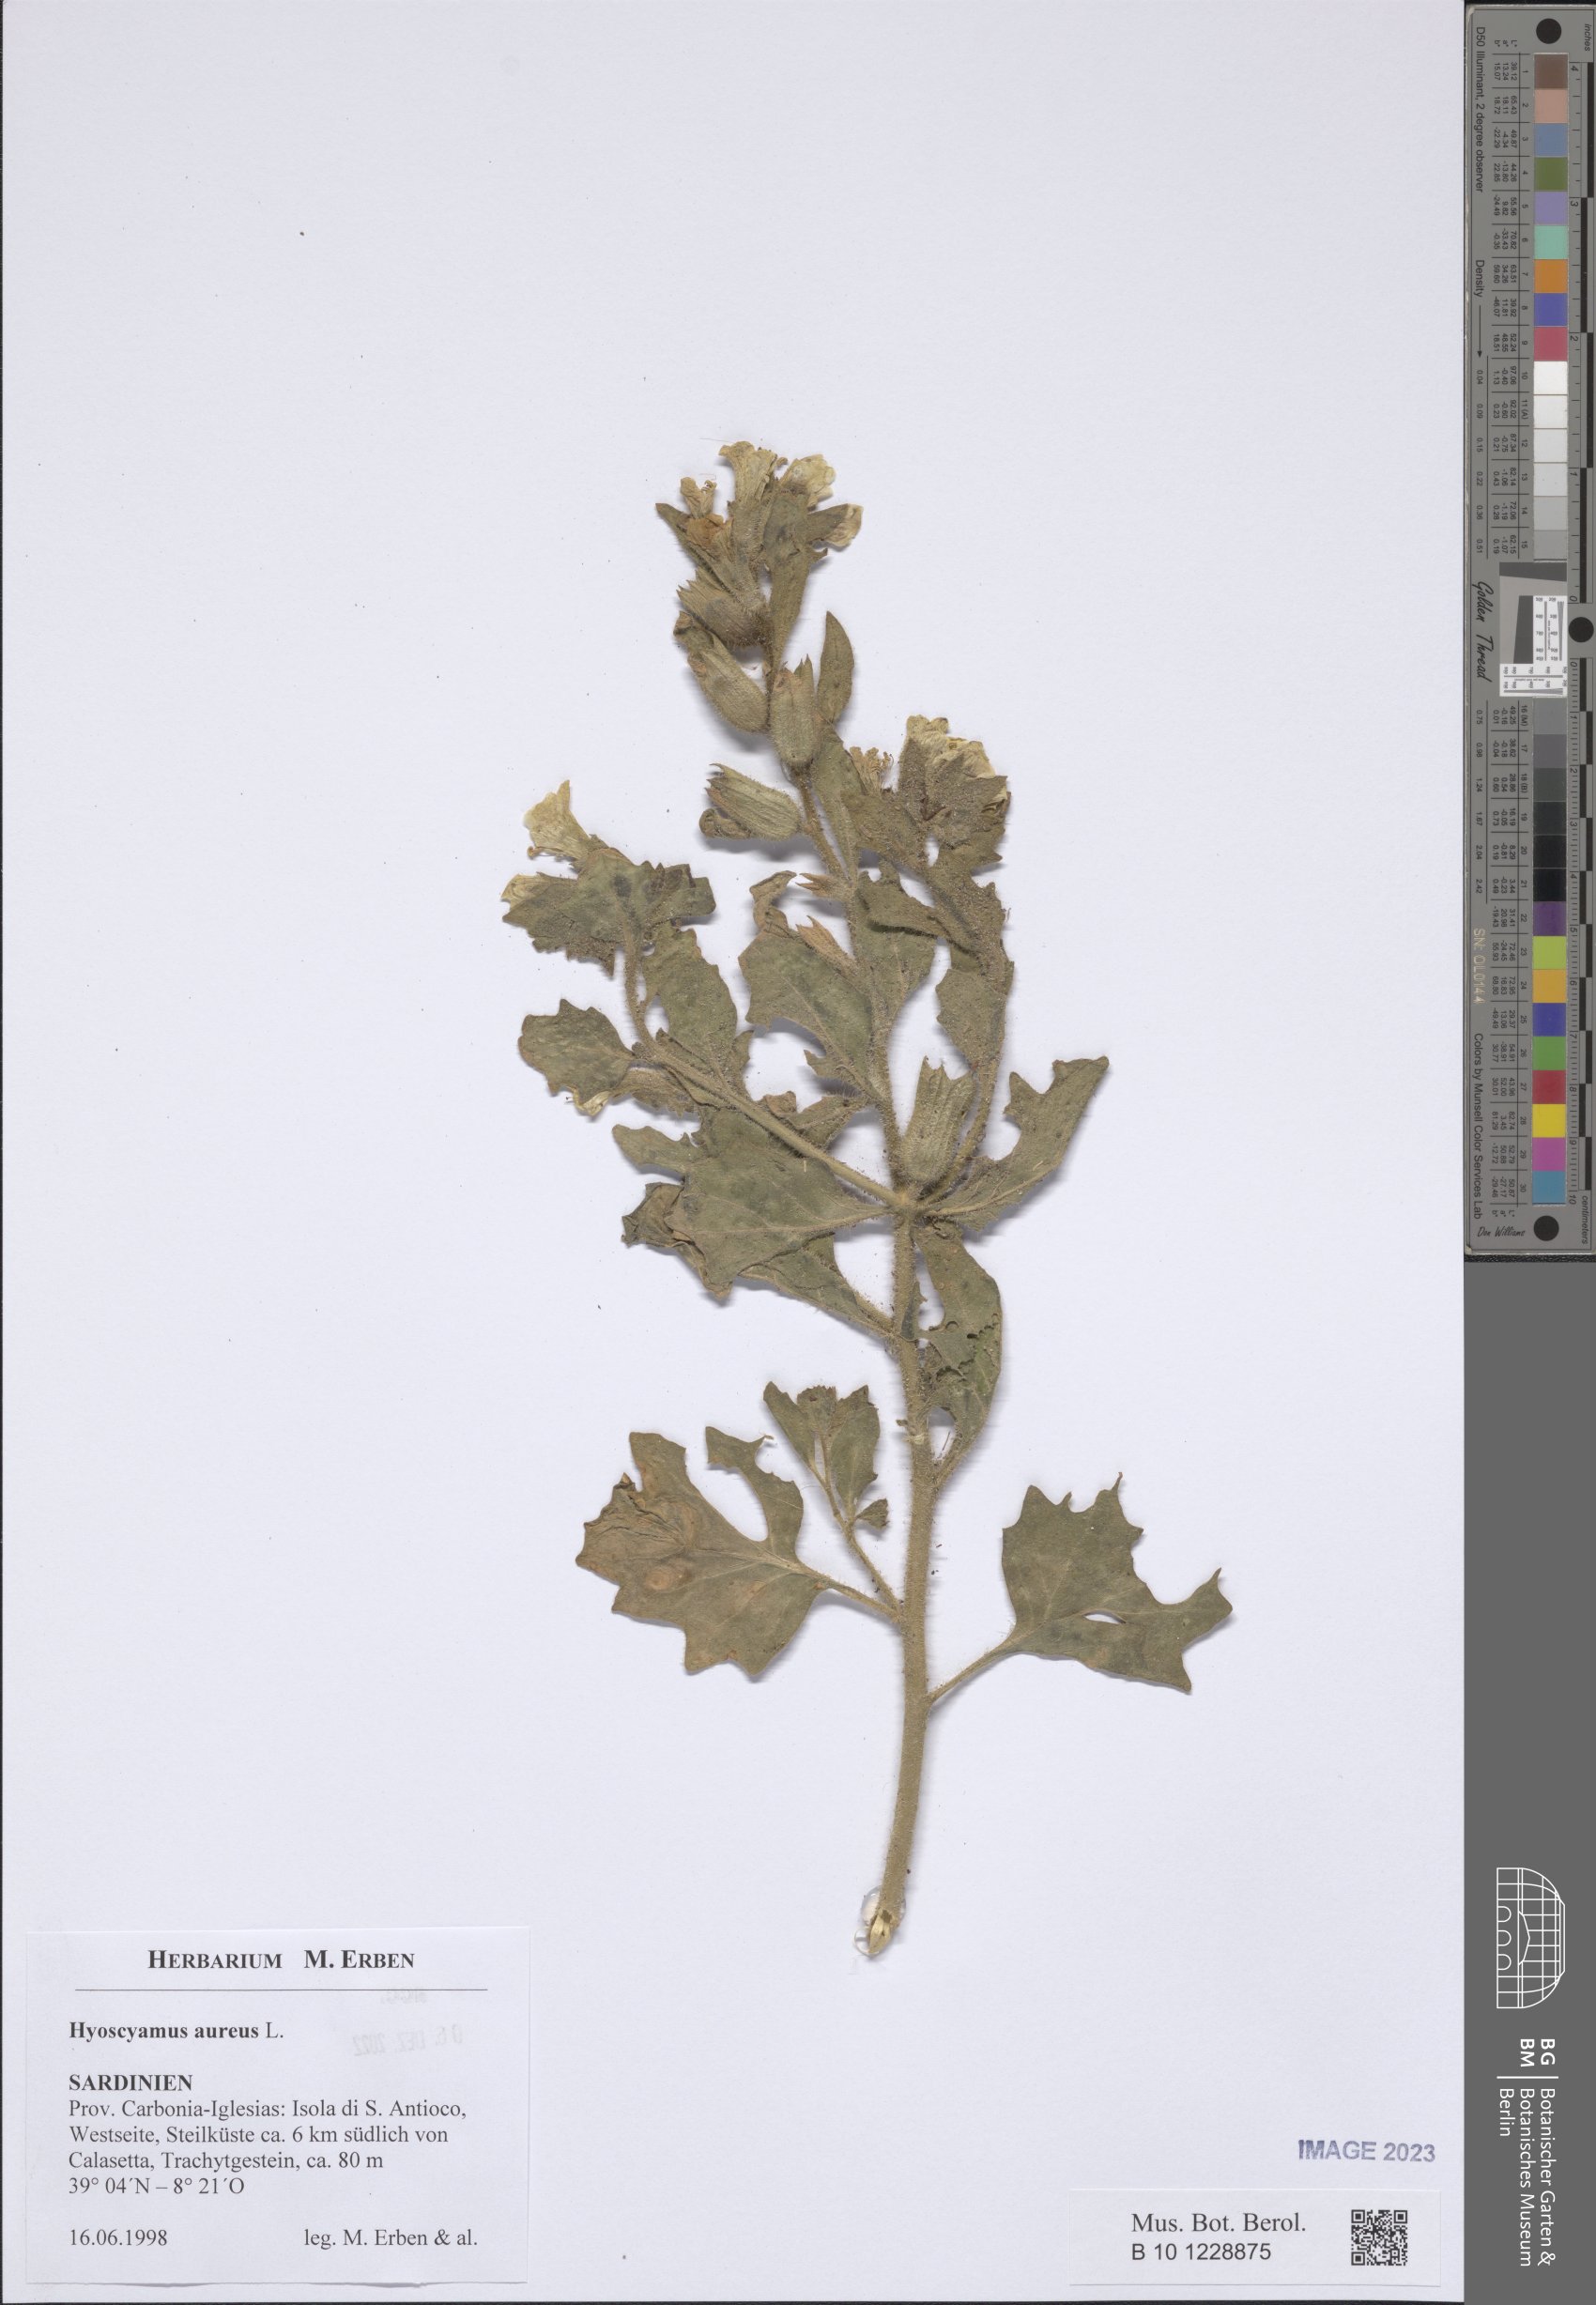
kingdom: Plantae
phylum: Tracheophyta
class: Magnoliopsida
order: Solanales
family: Solanaceae
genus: Hyoscyamus
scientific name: Hyoscyamus aureus
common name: Golden henbane
